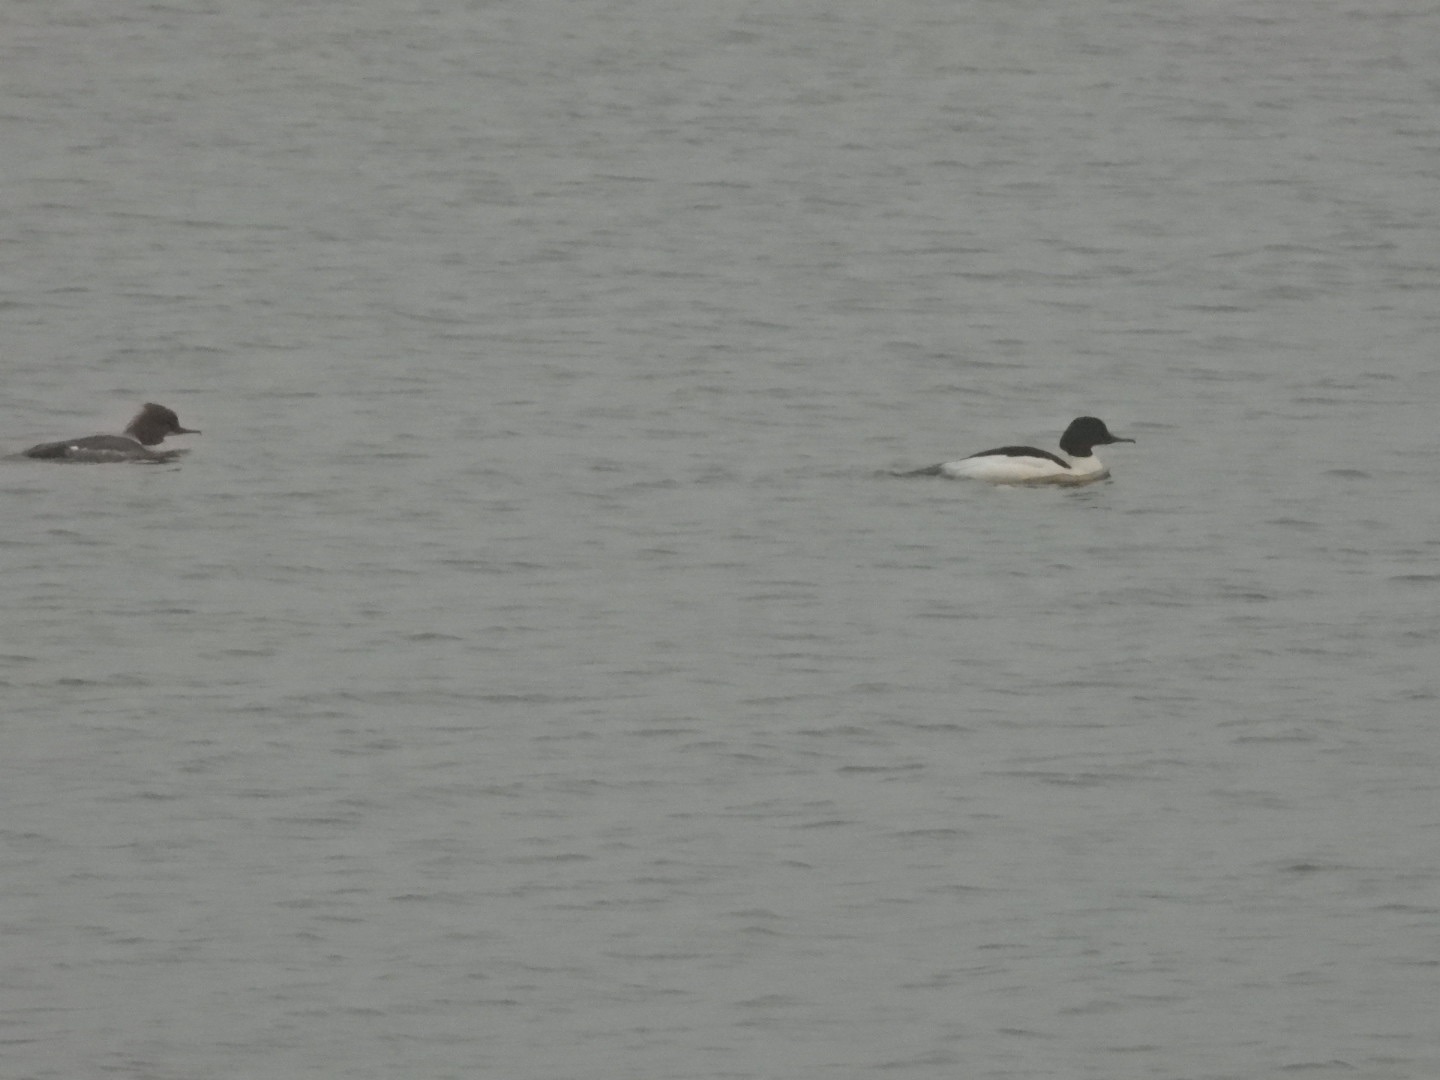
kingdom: Animalia
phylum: Chordata
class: Aves
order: Anseriformes
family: Anatidae
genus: Mergus
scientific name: Mergus merganser
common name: Stor skallesluger
